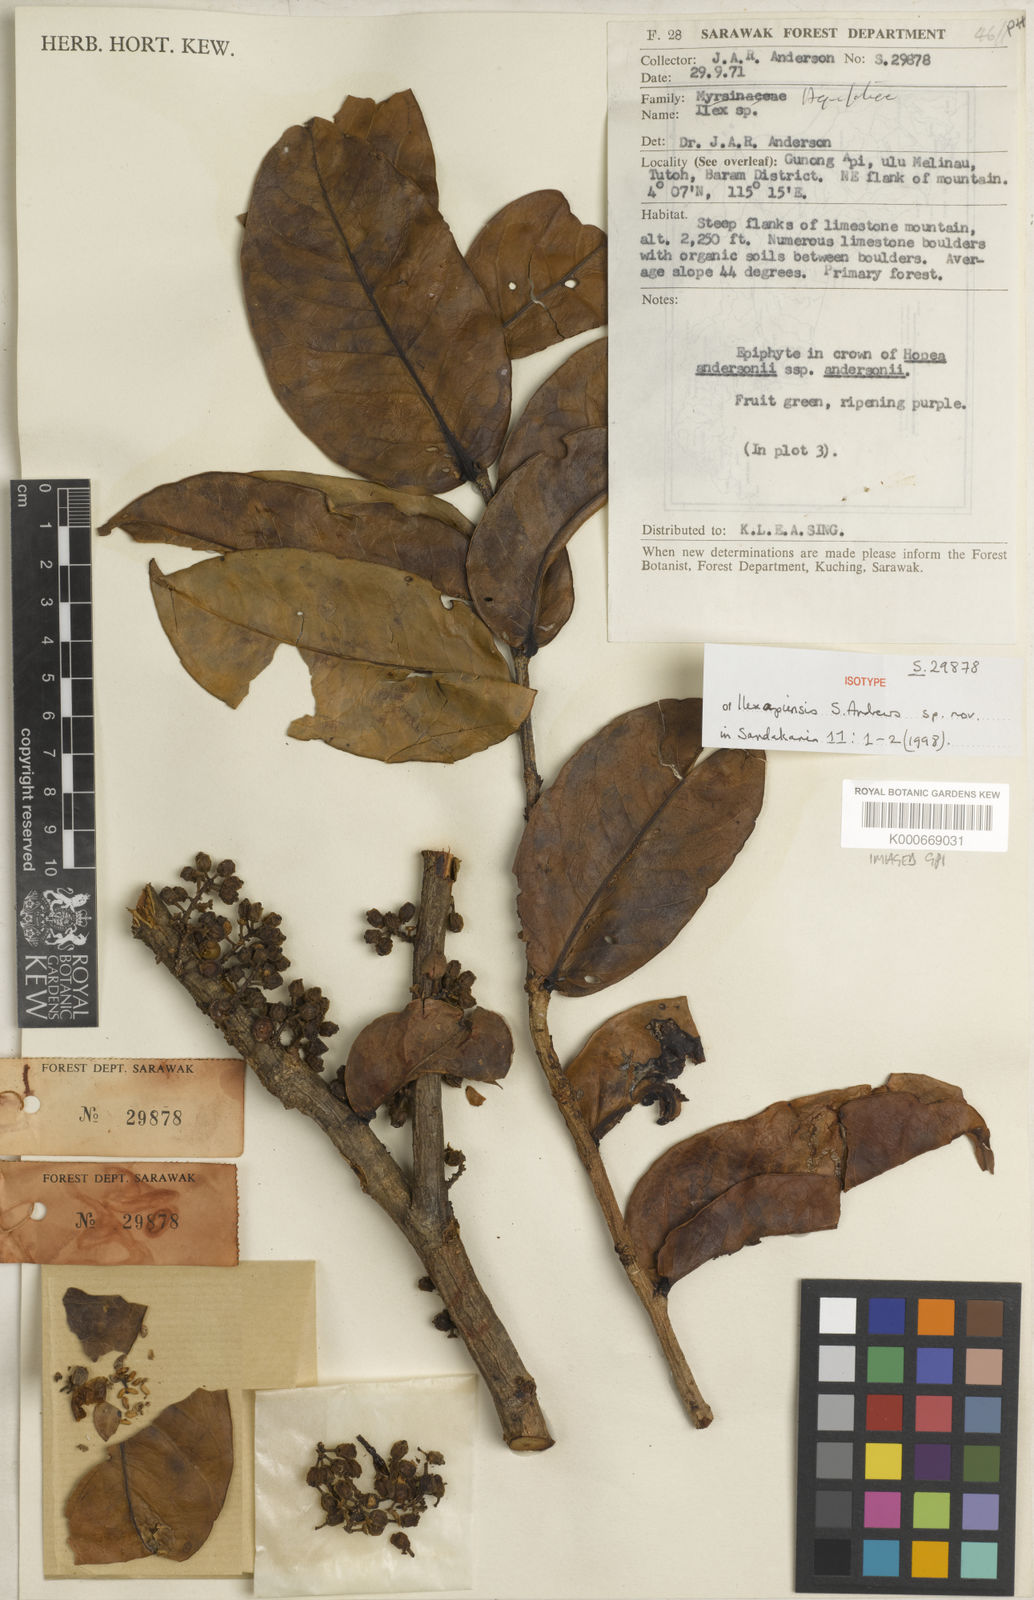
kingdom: Plantae
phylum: Tracheophyta
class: Magnoliopsida
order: Aquifoliales
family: Aquifoliaceae
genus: Ilex
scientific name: Ilex apiensis
